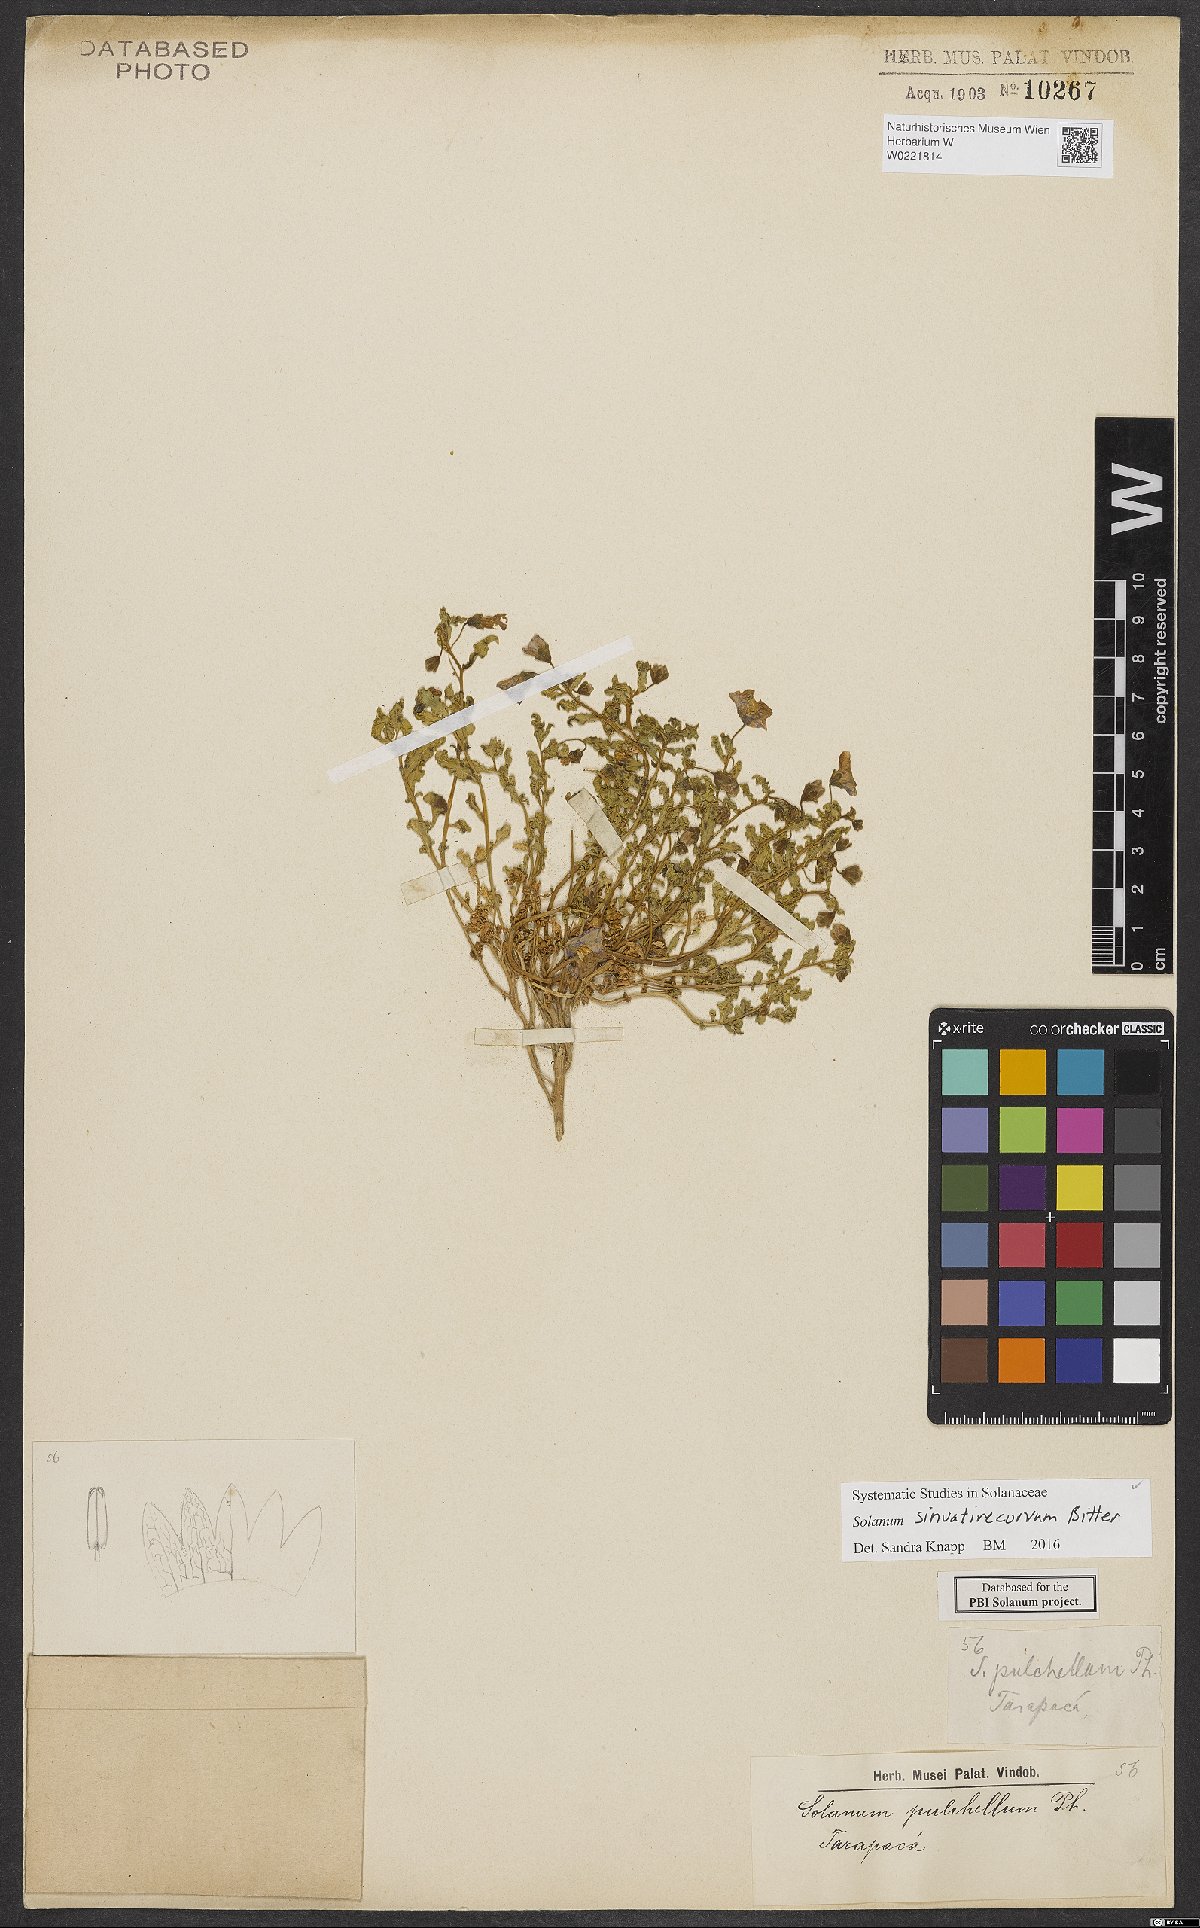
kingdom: Plantae
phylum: Tracheophyta
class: Magnoliopsida
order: Solanales
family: Solanaceae
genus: Solanum
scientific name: Solanum sinuatirecurvum
